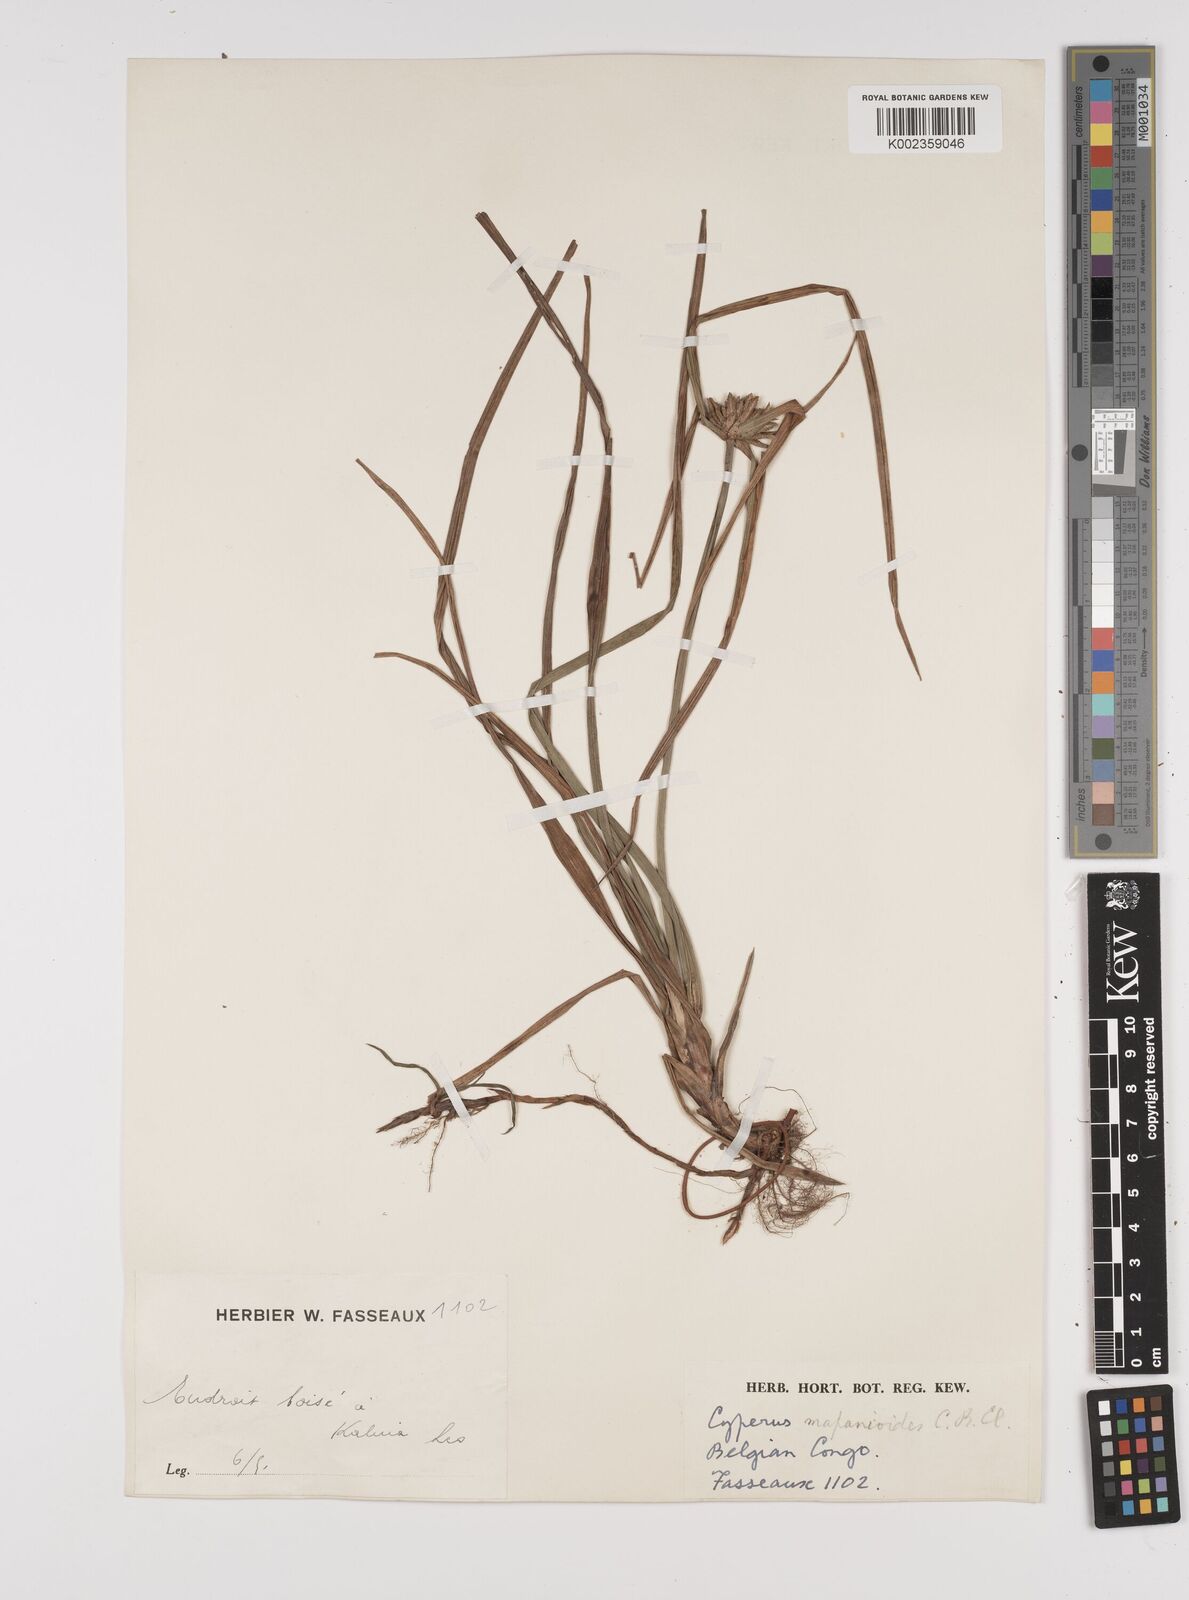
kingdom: Plantae
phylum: Tracheophyta
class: Liliopsida
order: Poales
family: Cyperaceae
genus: Cyperus
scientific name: Cyperus mapanioides
